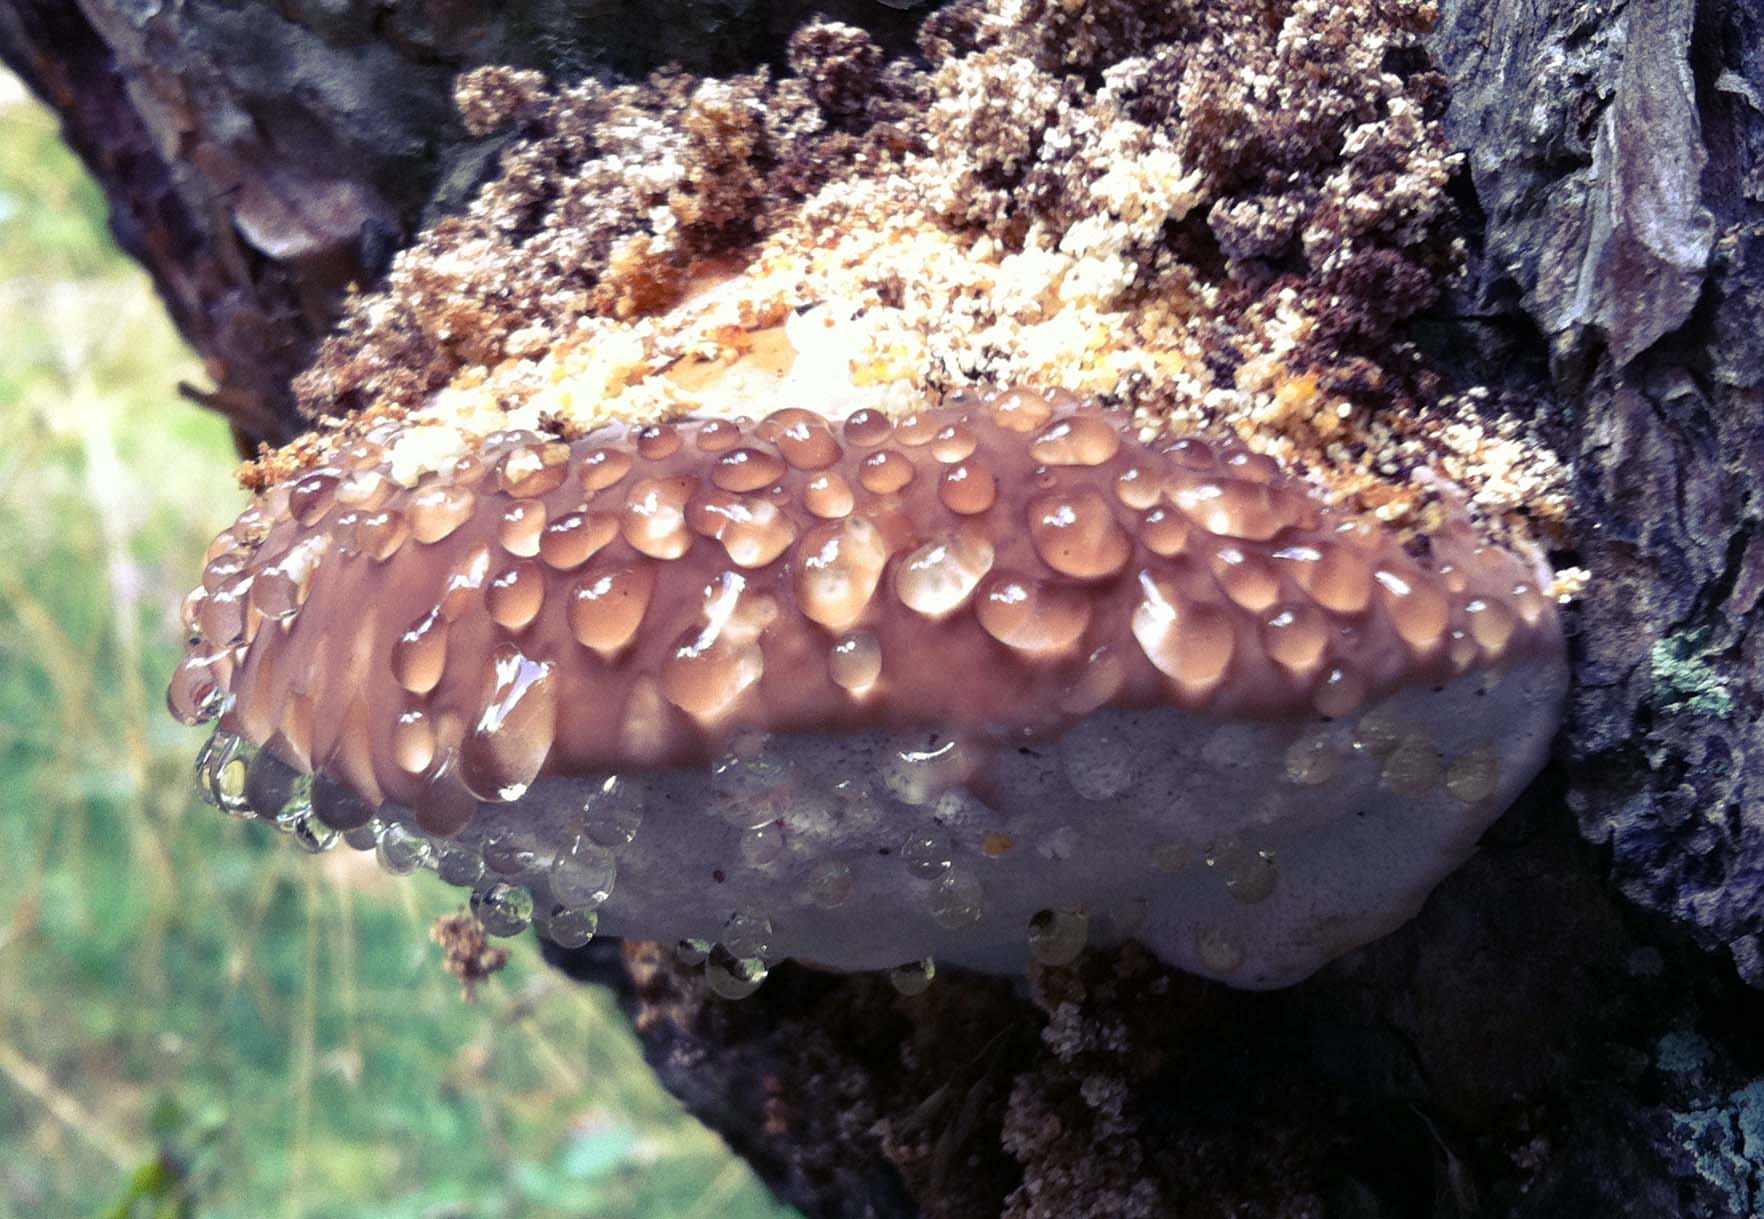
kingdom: Fungi
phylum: Basidiomycota
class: Agaricomycetes
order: Polyporales
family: Fomitopsidaceae
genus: Fomitopsis
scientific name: Fomitopsis pinicola
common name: randbæltet hovporesvamp
